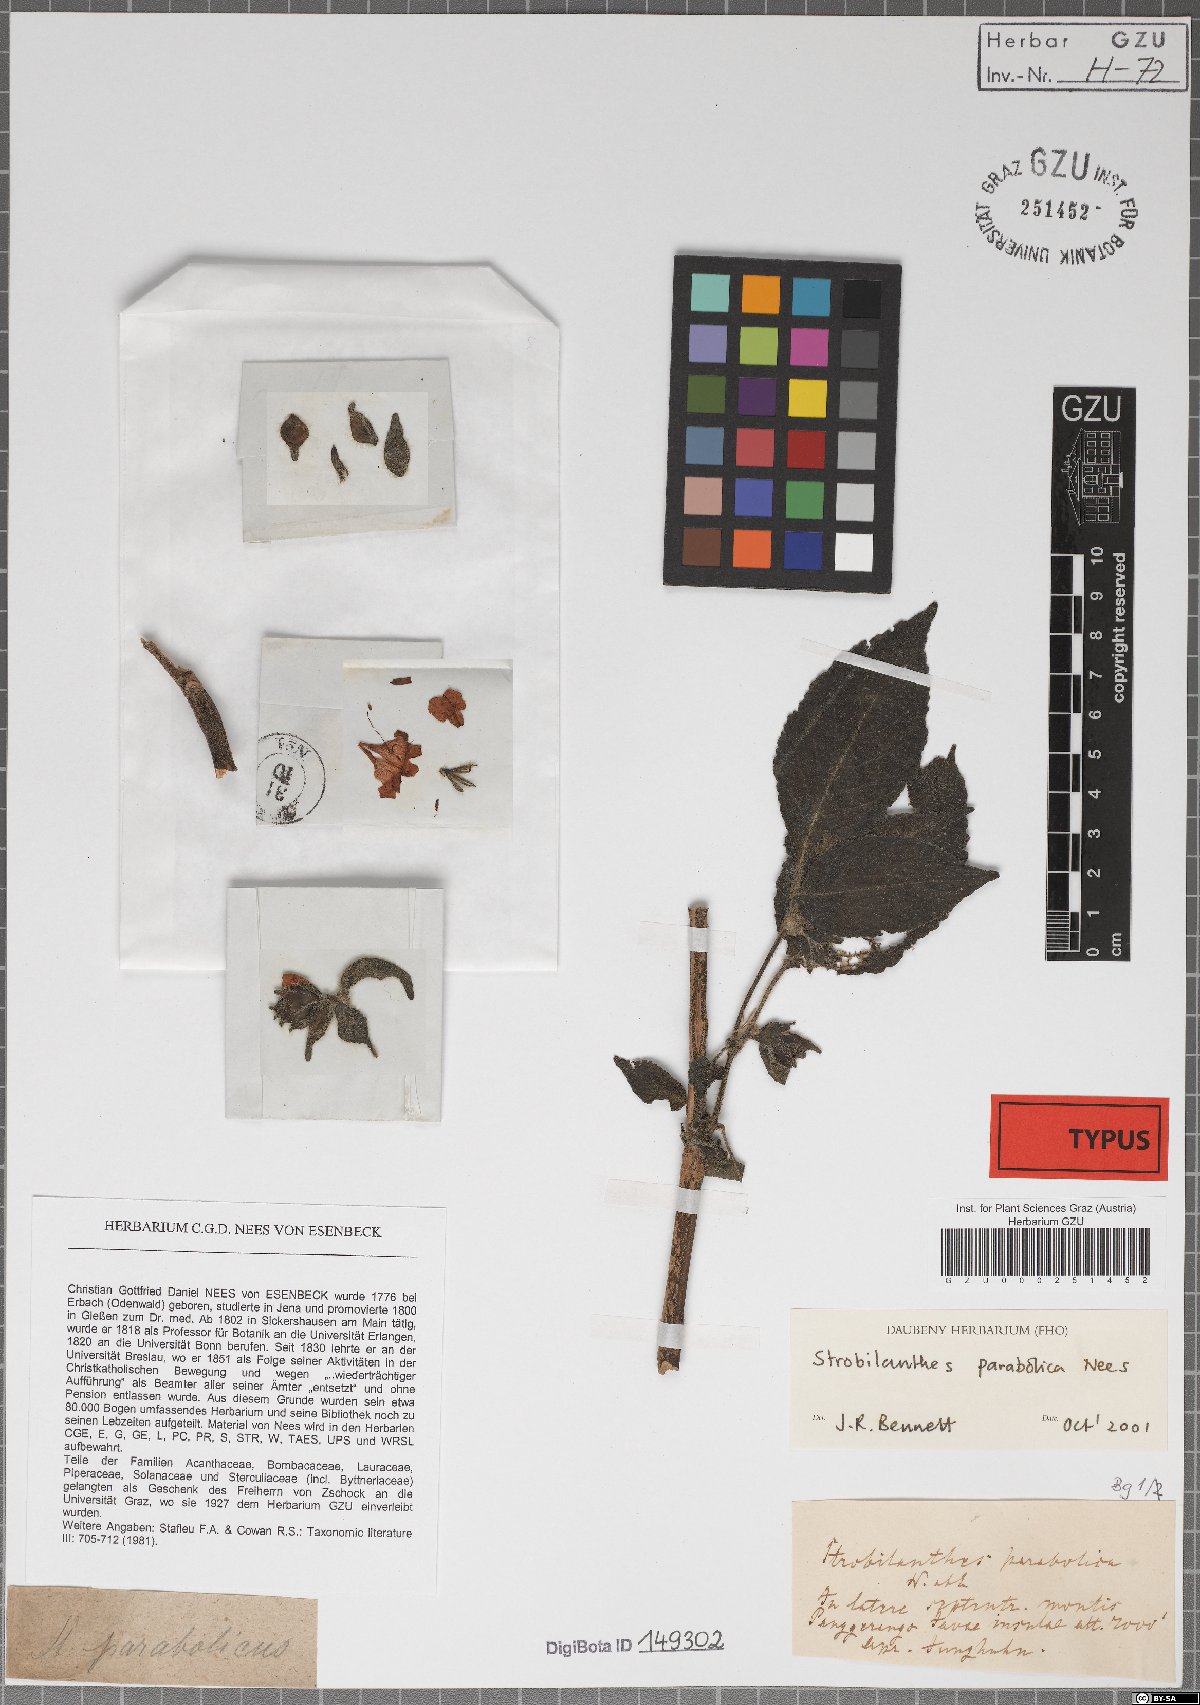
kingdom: Plantae
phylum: Tracheophyta
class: Magnoliopsida
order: Lamiales
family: Acanthaceae
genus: Strobilanthes
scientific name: Strobilanthes parabolica
